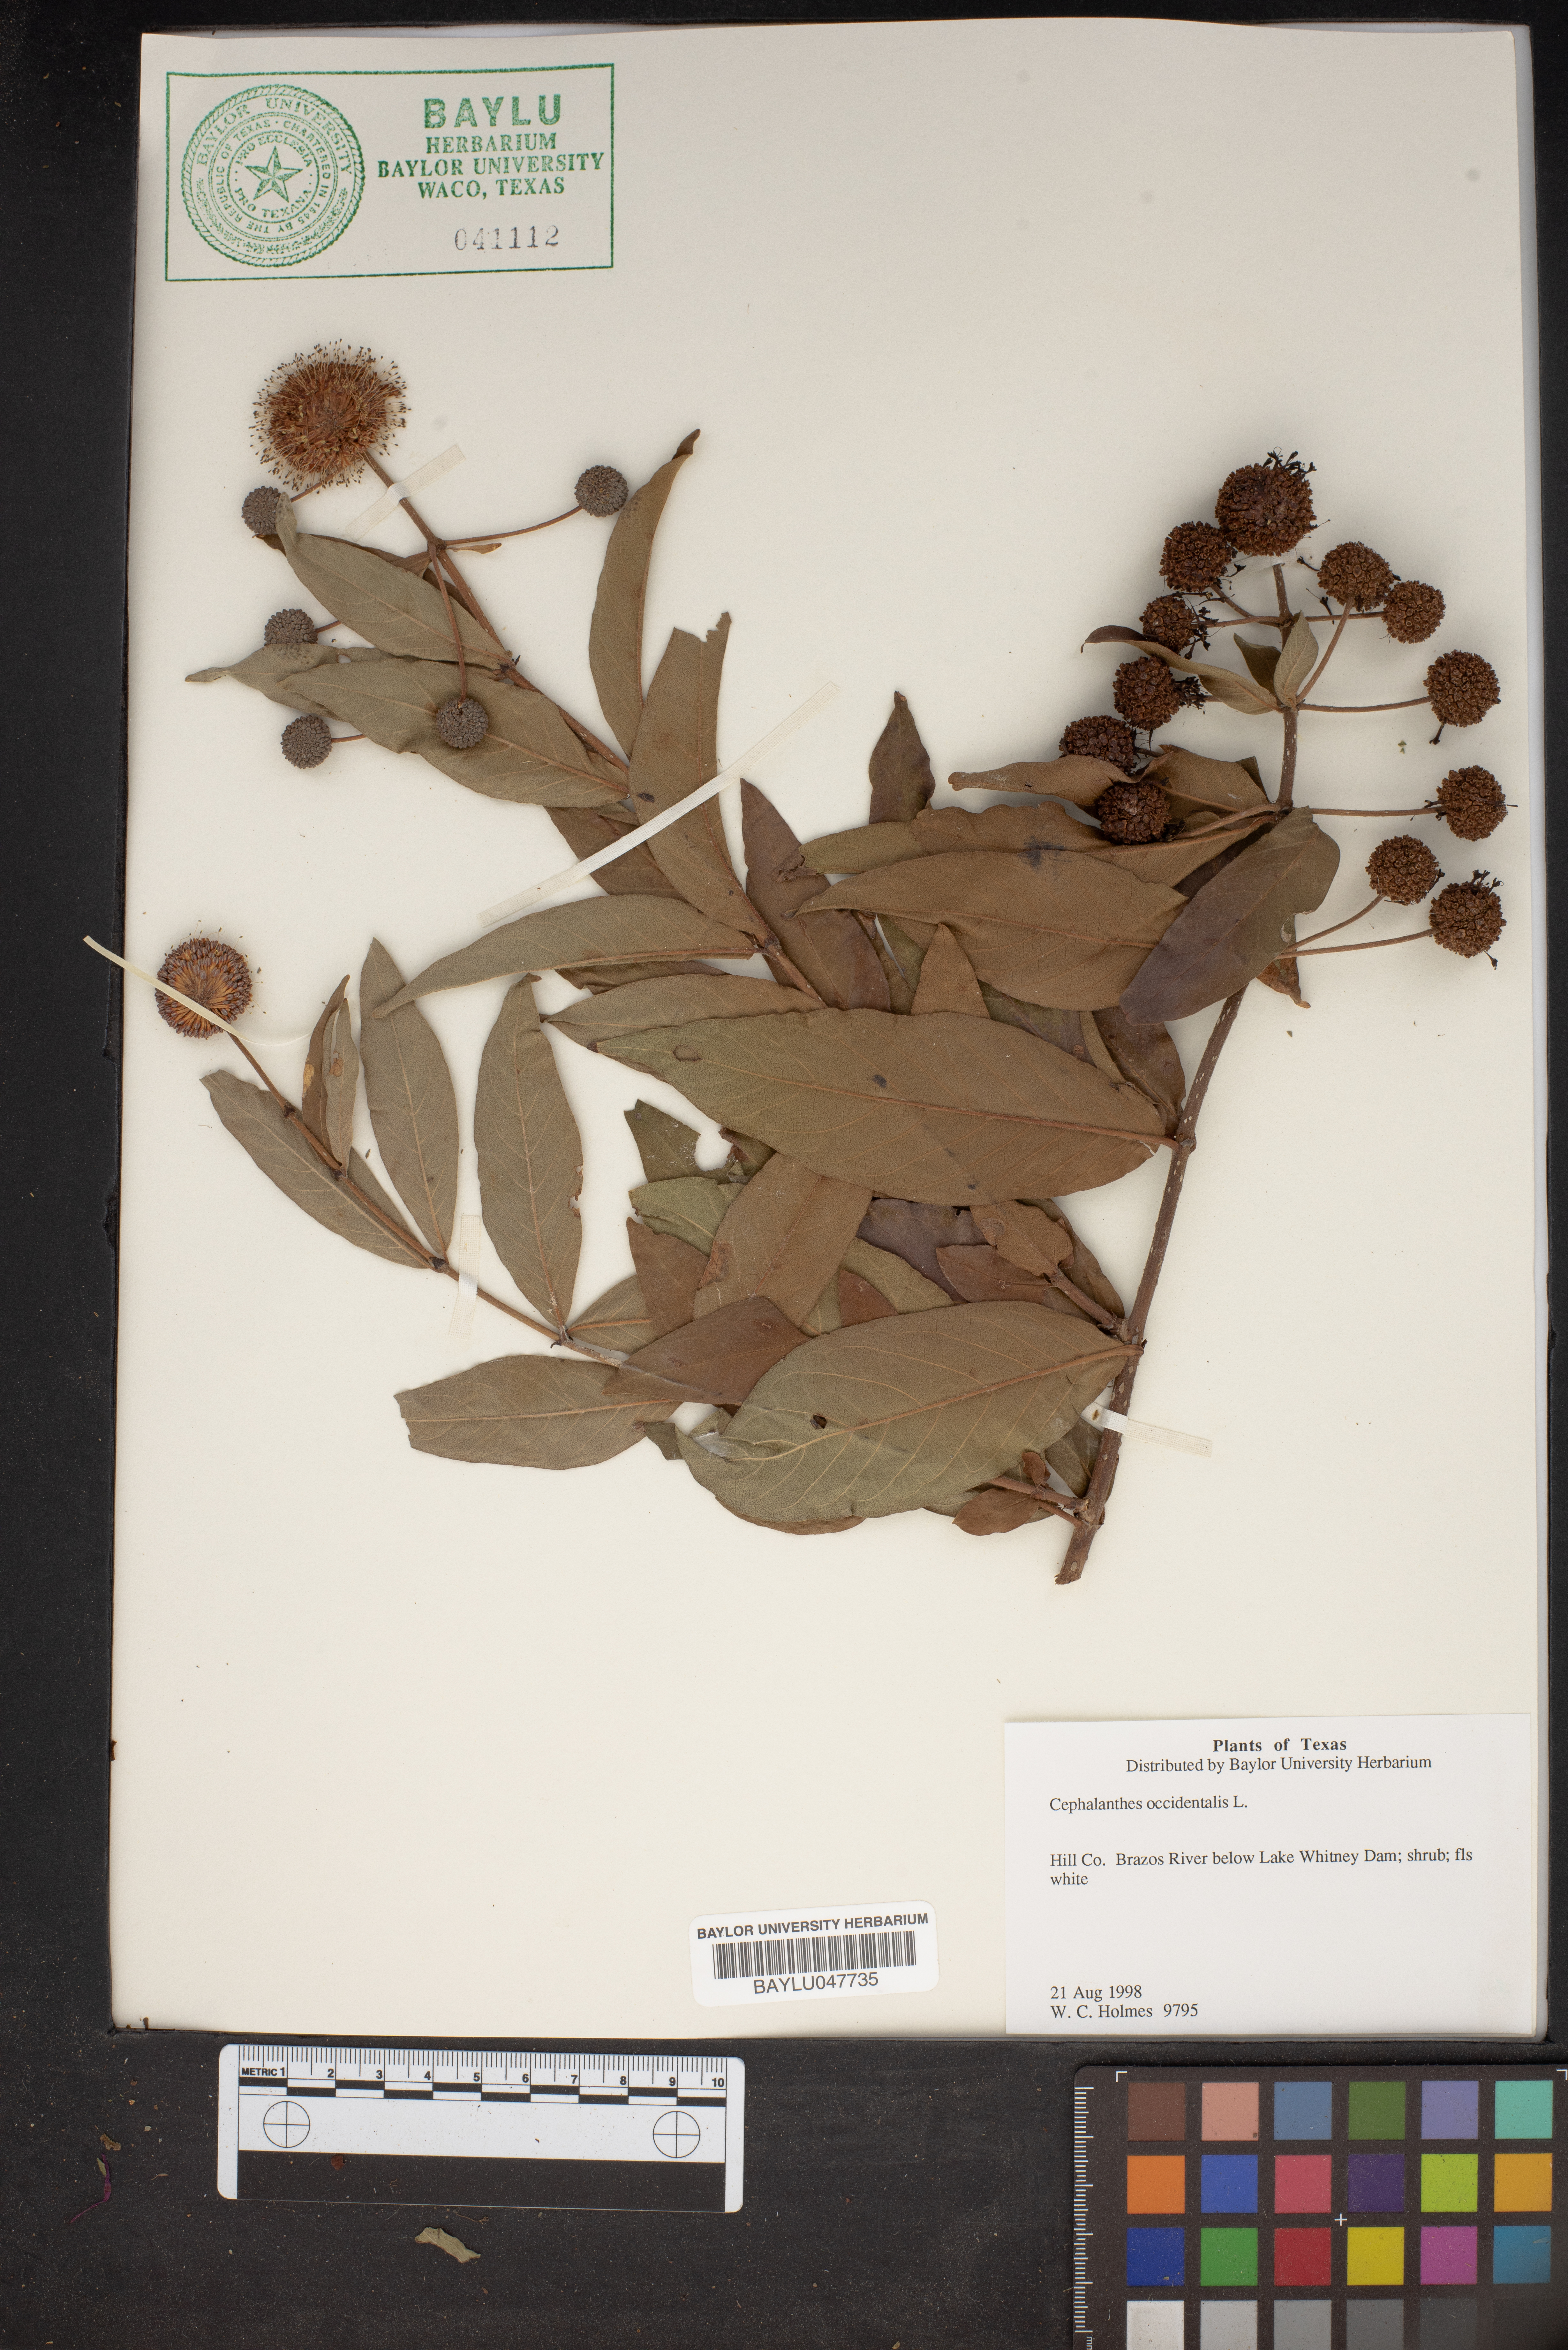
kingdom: Plantae
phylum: Tracheophyta
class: Magnoliopsida
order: Gentianales
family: Rubiaceae
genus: Cephalanthus
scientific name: Cephalanthus occidentalis
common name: Button-willow
